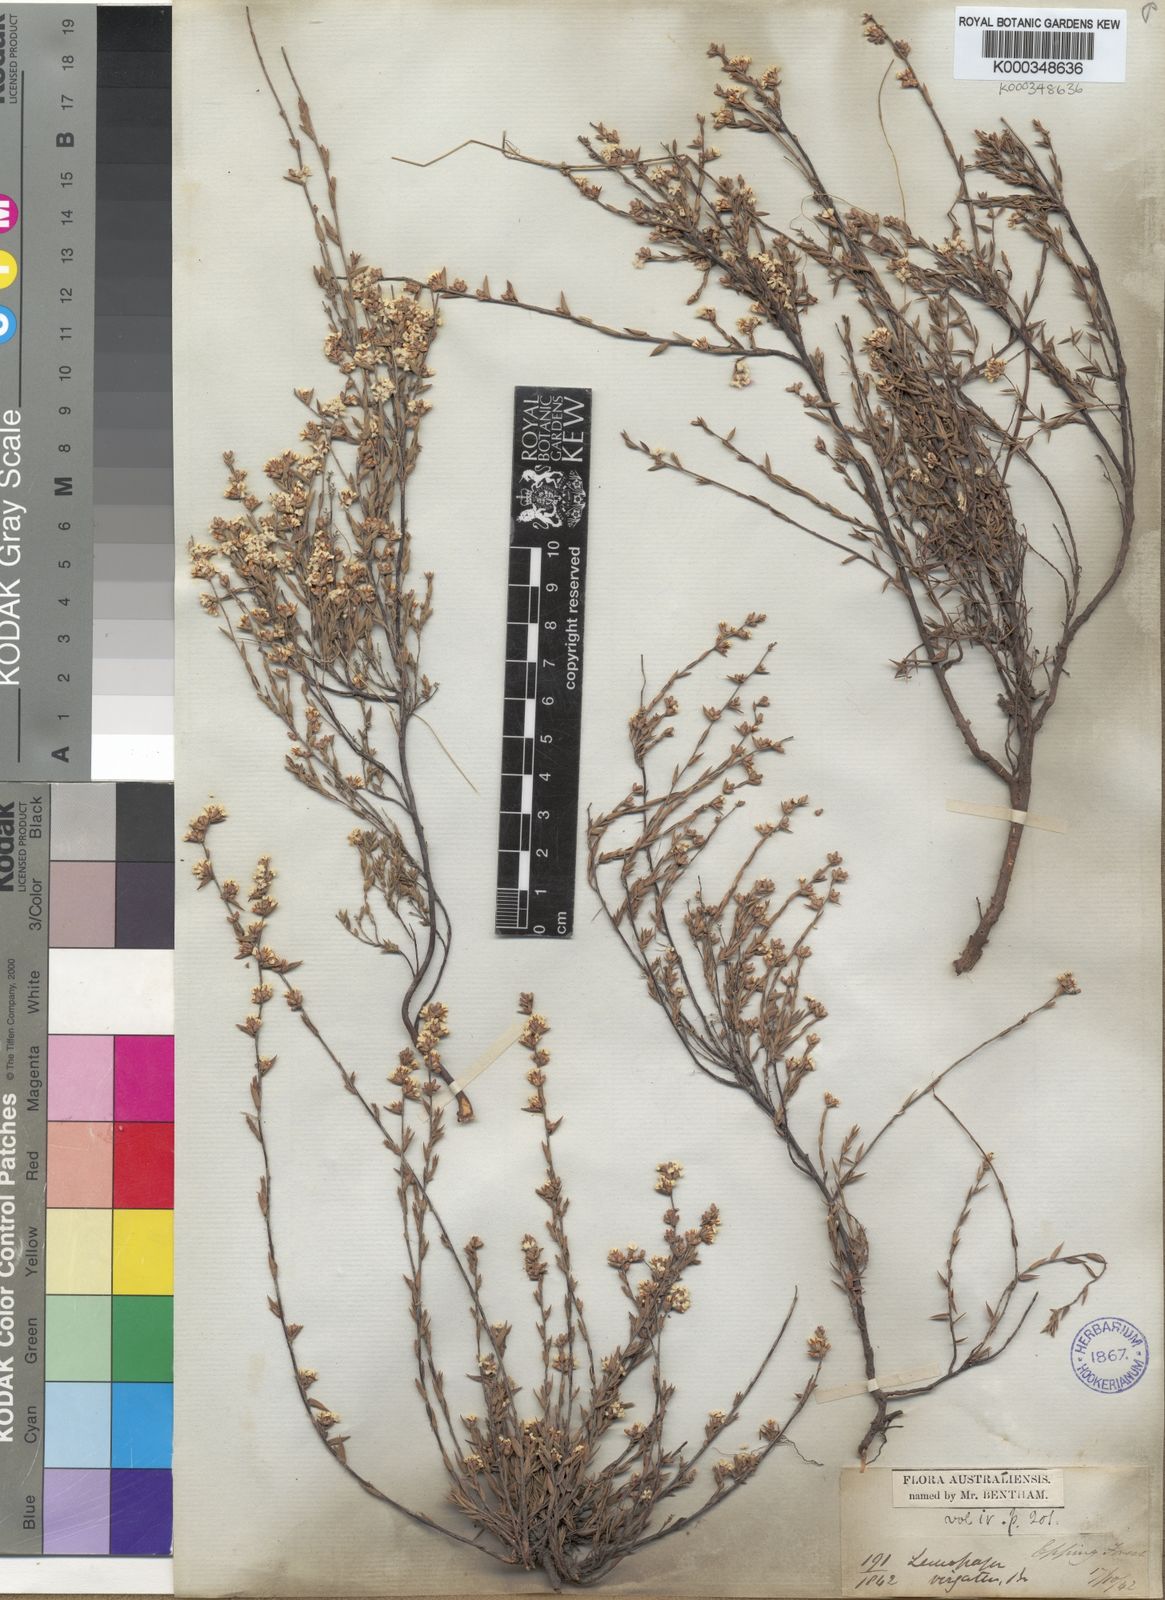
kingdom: Plantae
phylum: Tracheophyta
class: Magnoliopsida
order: Ericales
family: Ericaceae
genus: Leucopogon
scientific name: Leucopogon virgatus
